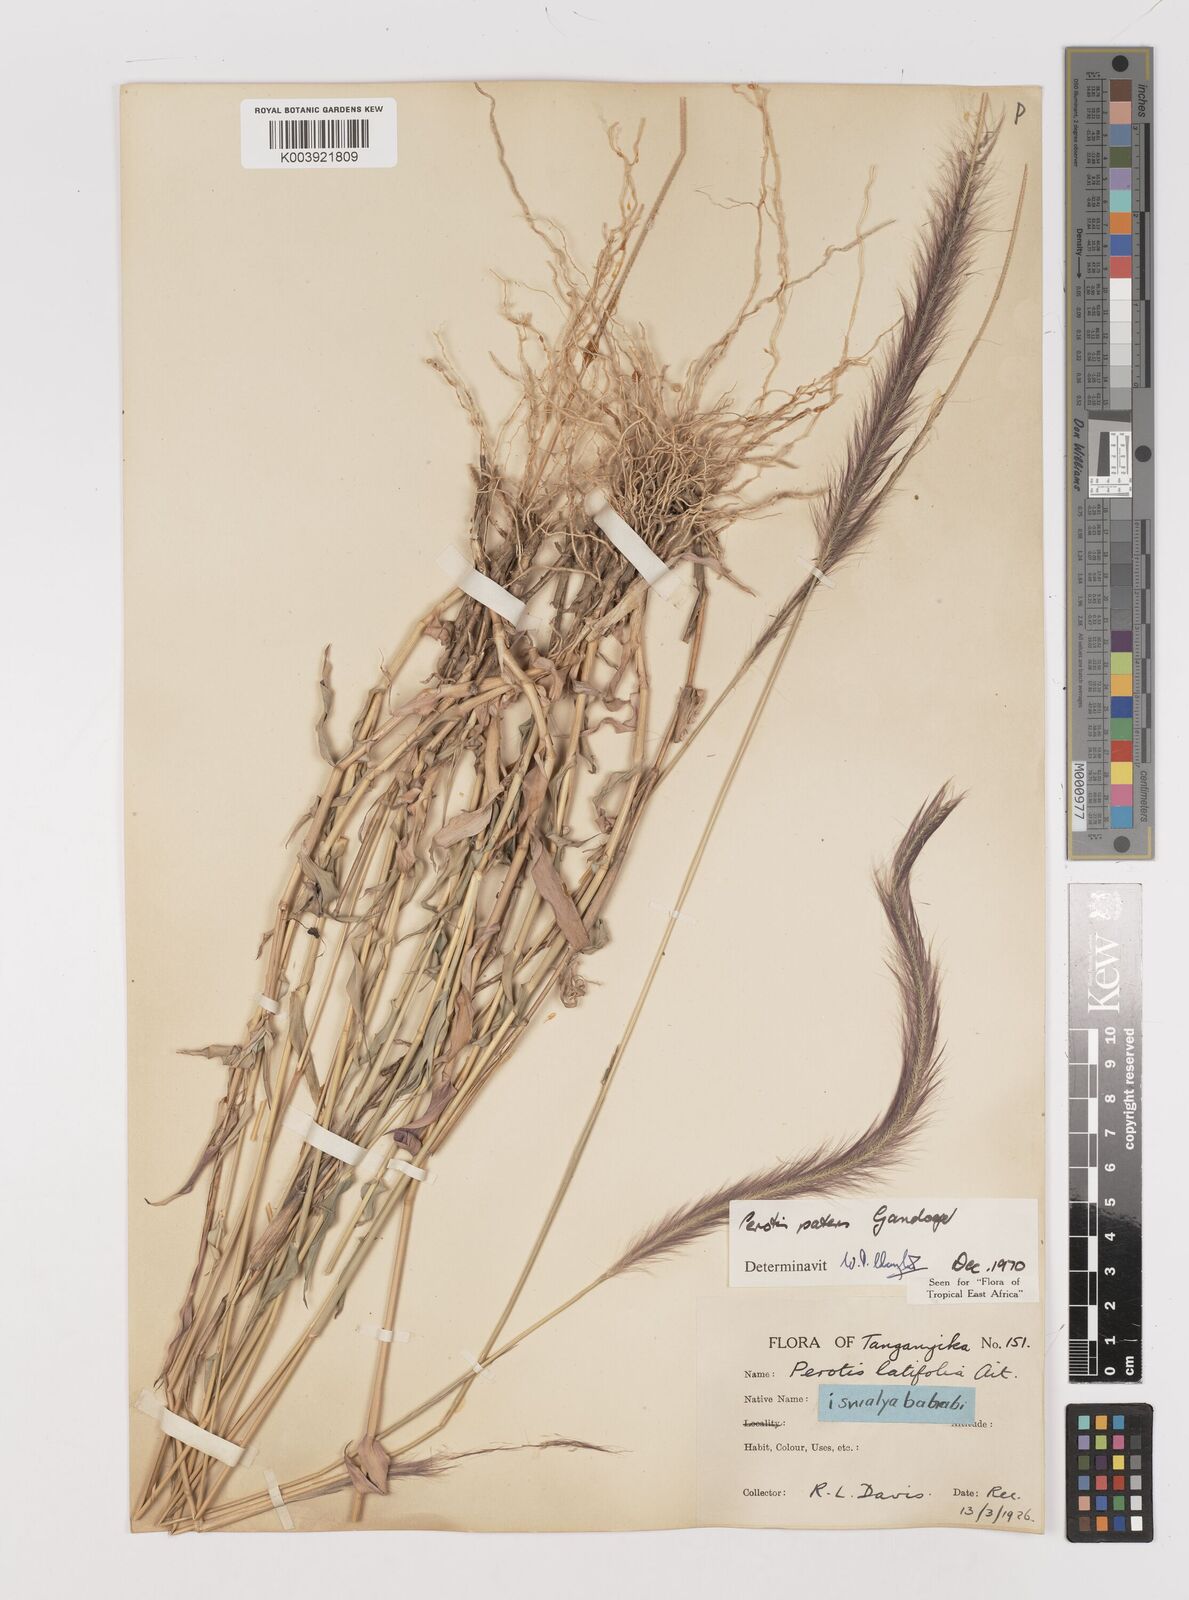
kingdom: Plantae
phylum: Tracheophyta
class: Liliopsida
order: Poales
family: Poaceae
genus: Perotis
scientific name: Perotis patens
